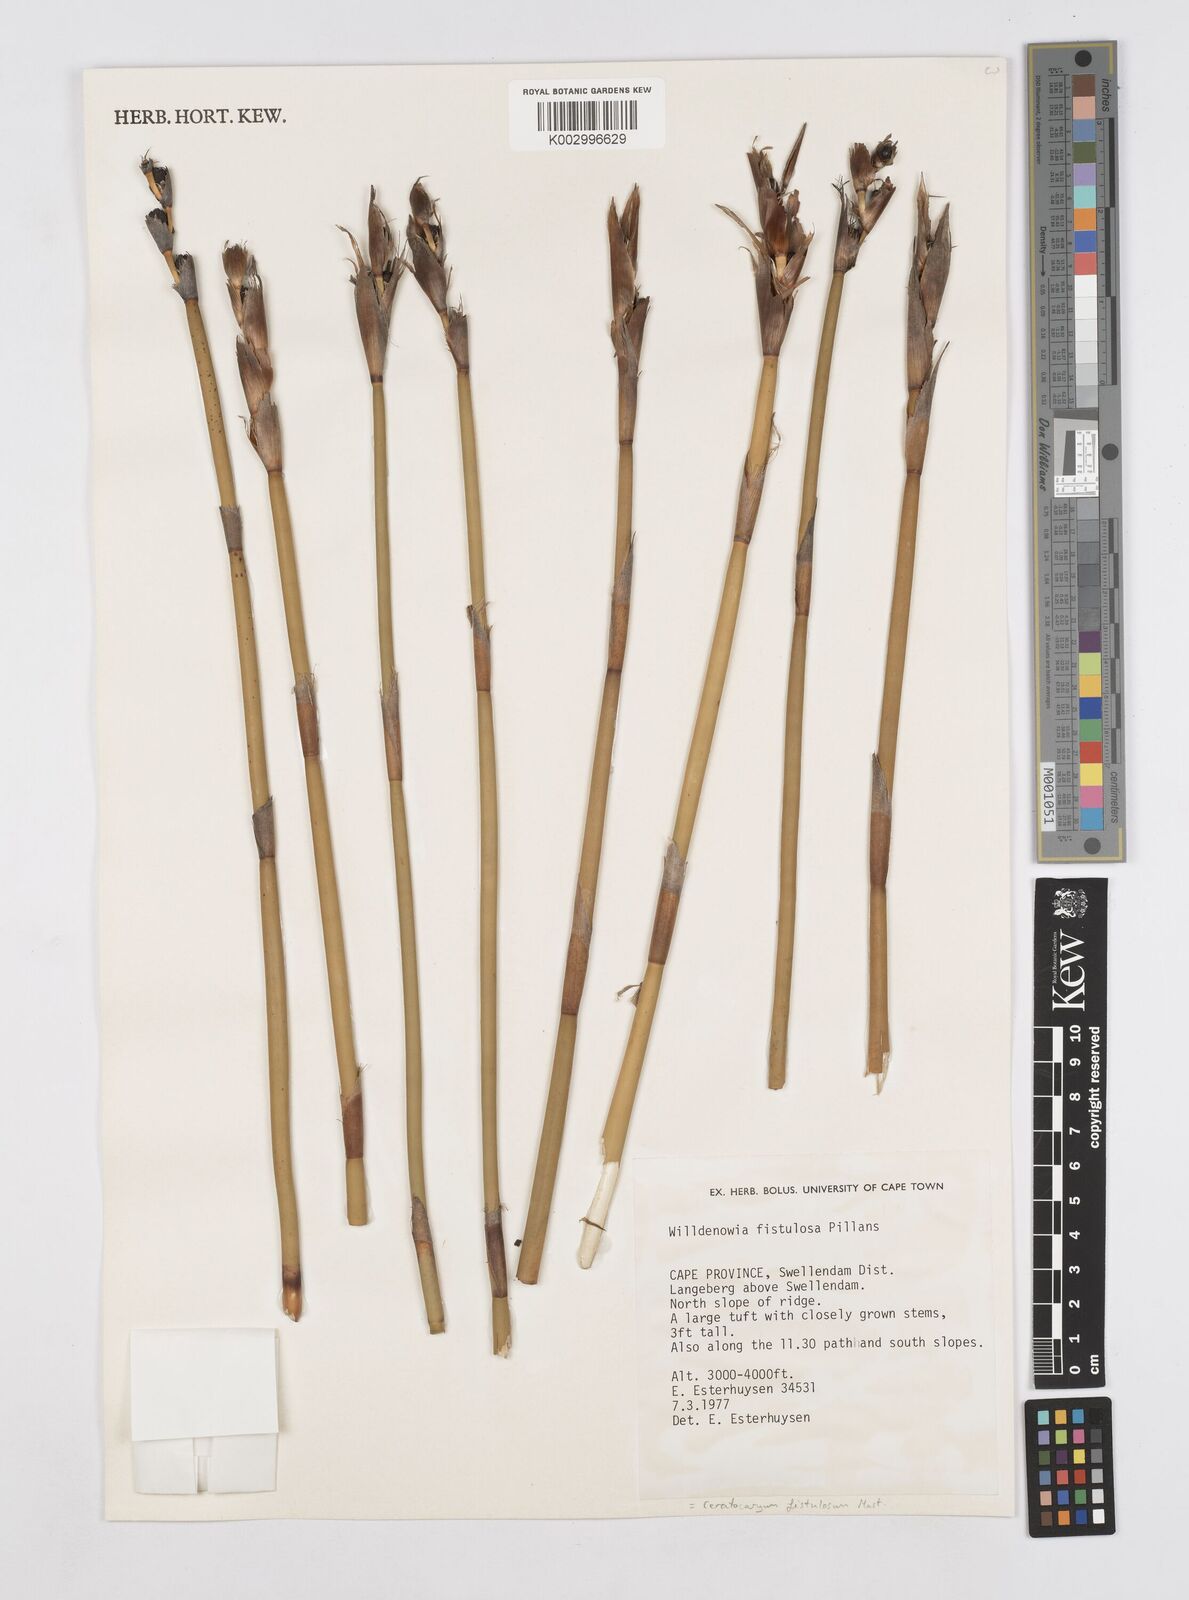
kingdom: Plantae
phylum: Tracheophyta
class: Liliopsida
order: Poales
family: Restionaceae
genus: Ceratocaryum
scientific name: Ceratocaryum fistulosum
